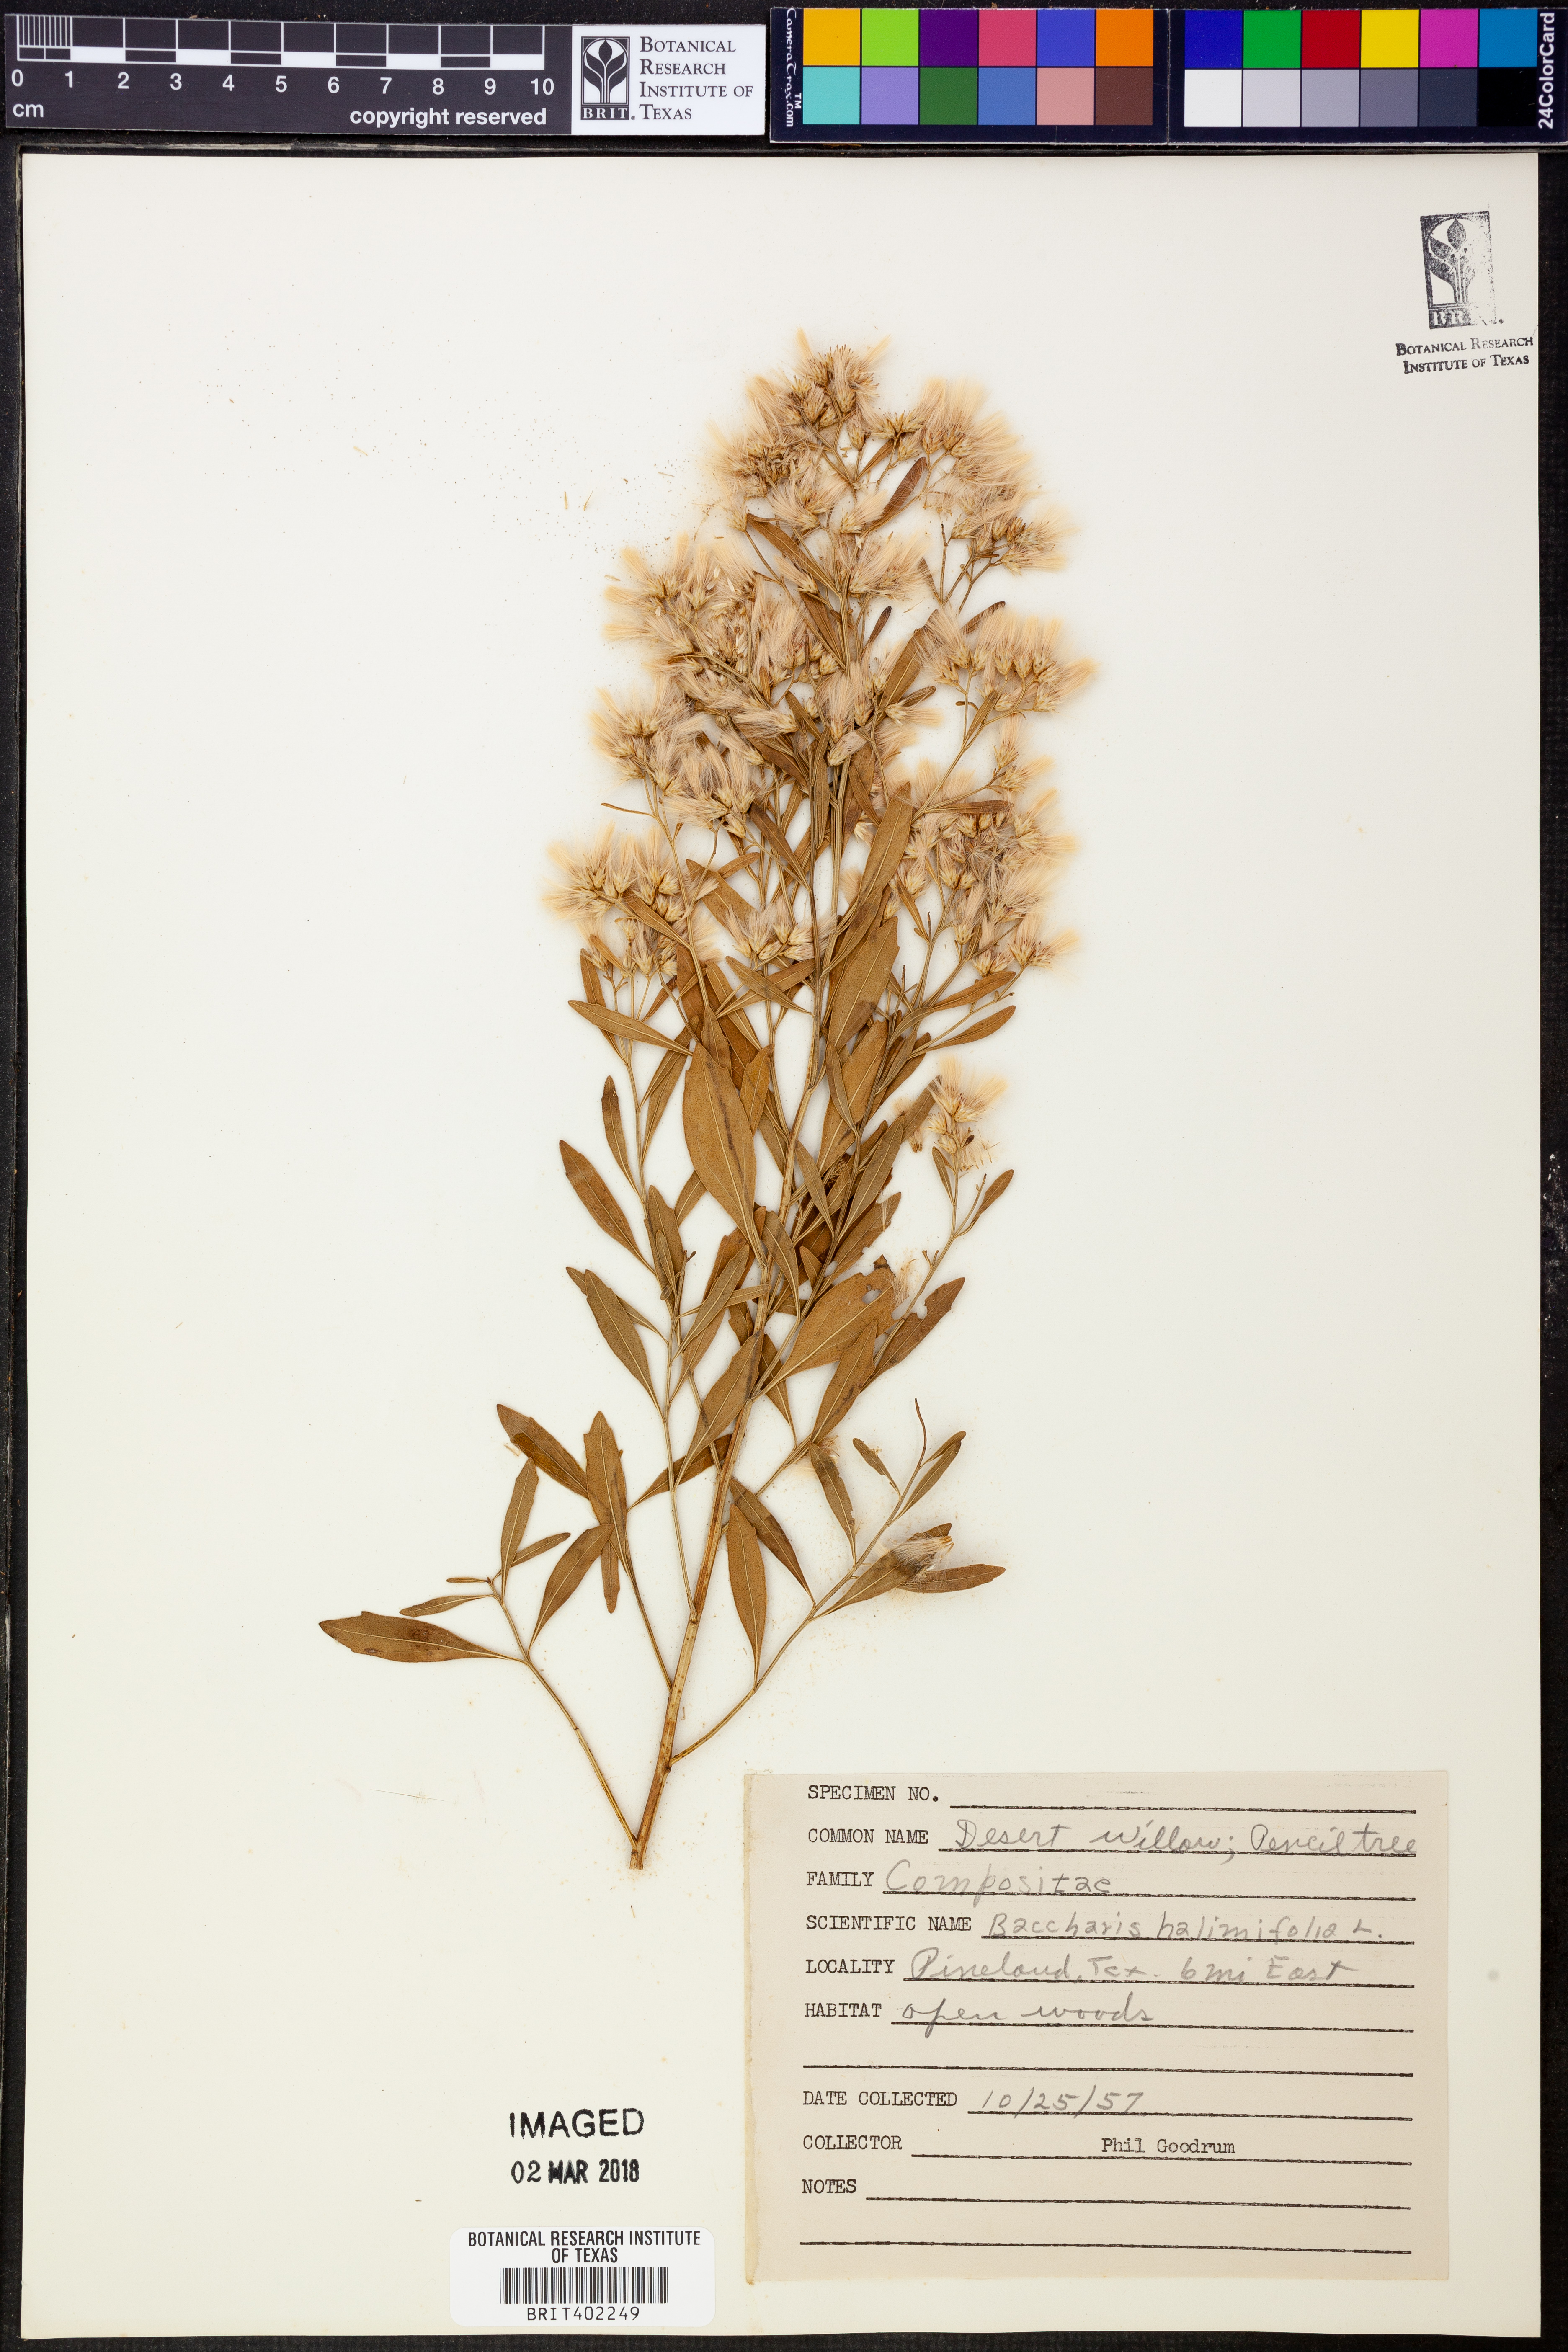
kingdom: Plantae
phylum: Tracheophyta
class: Magnoliopsida
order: Asterales
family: Asteraceae
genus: Nidorella
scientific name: Nidorella ivifolia
